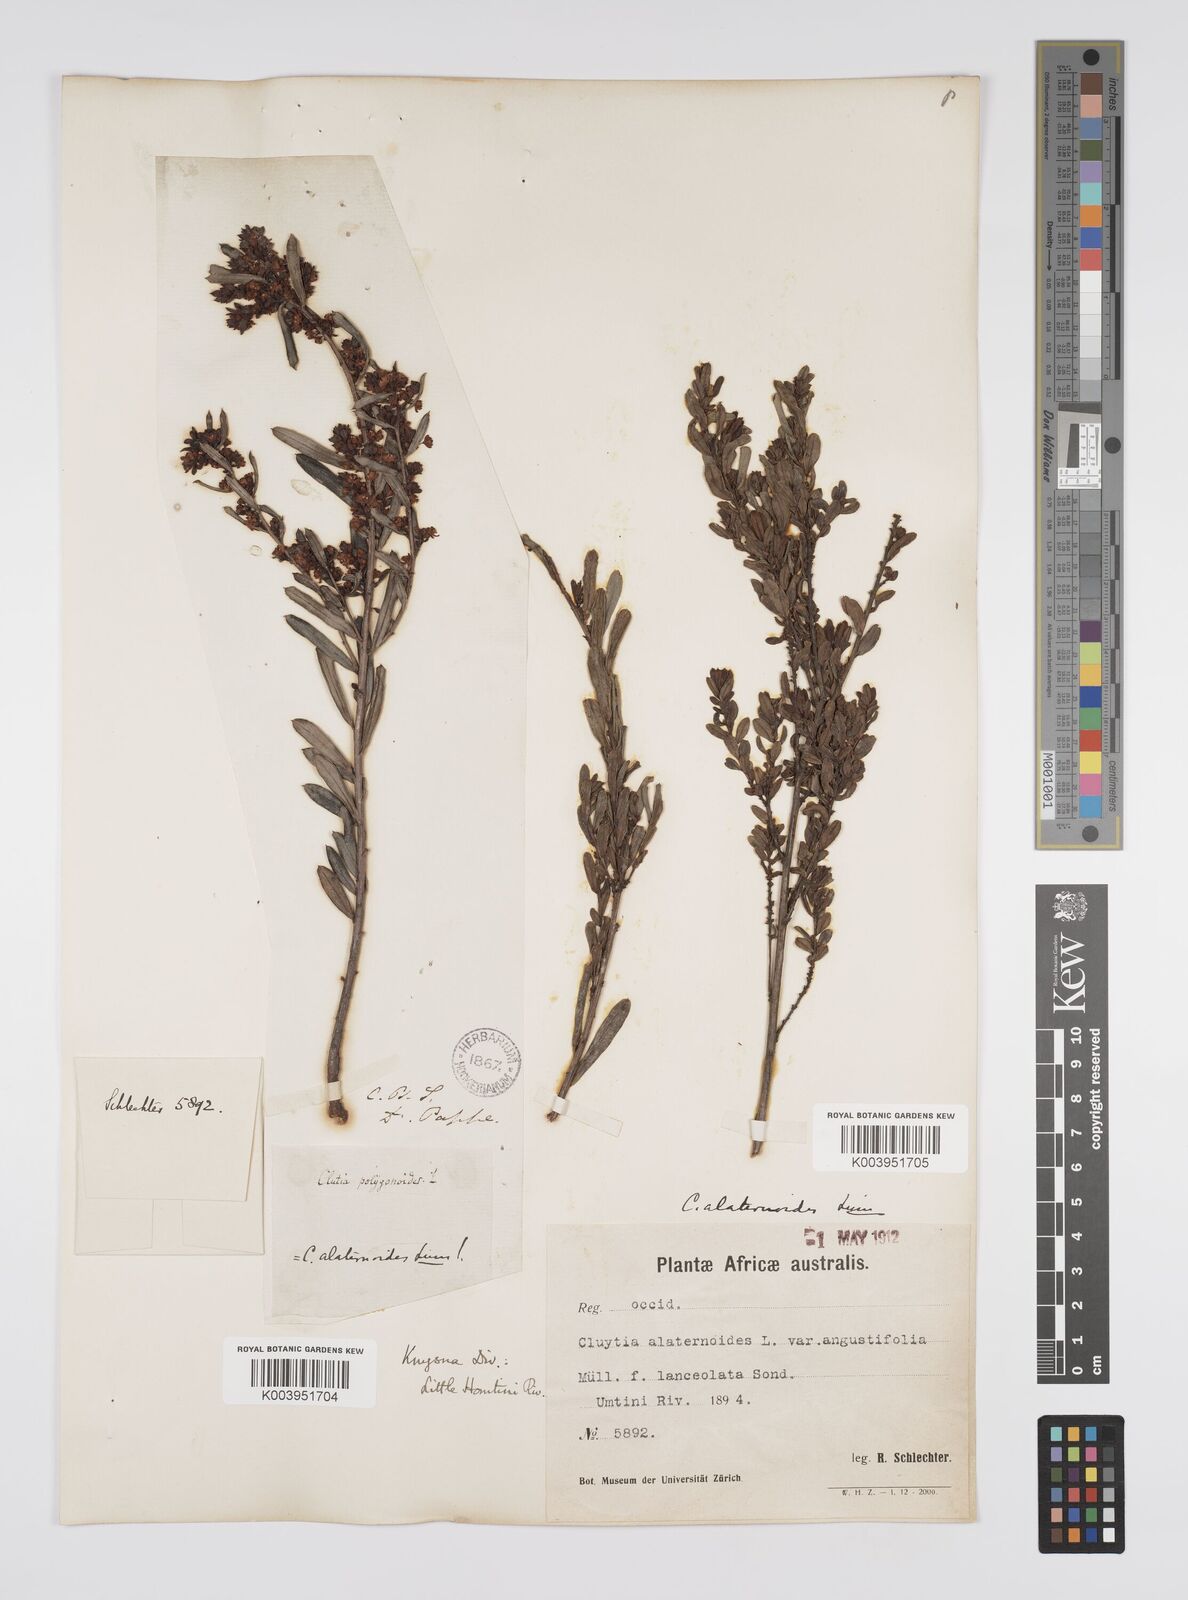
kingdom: Plantae
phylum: Tracheophyta
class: Magnoliopsida
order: Malpighiales
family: Peraceae
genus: Clutia
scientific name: Clutia alaternoides
